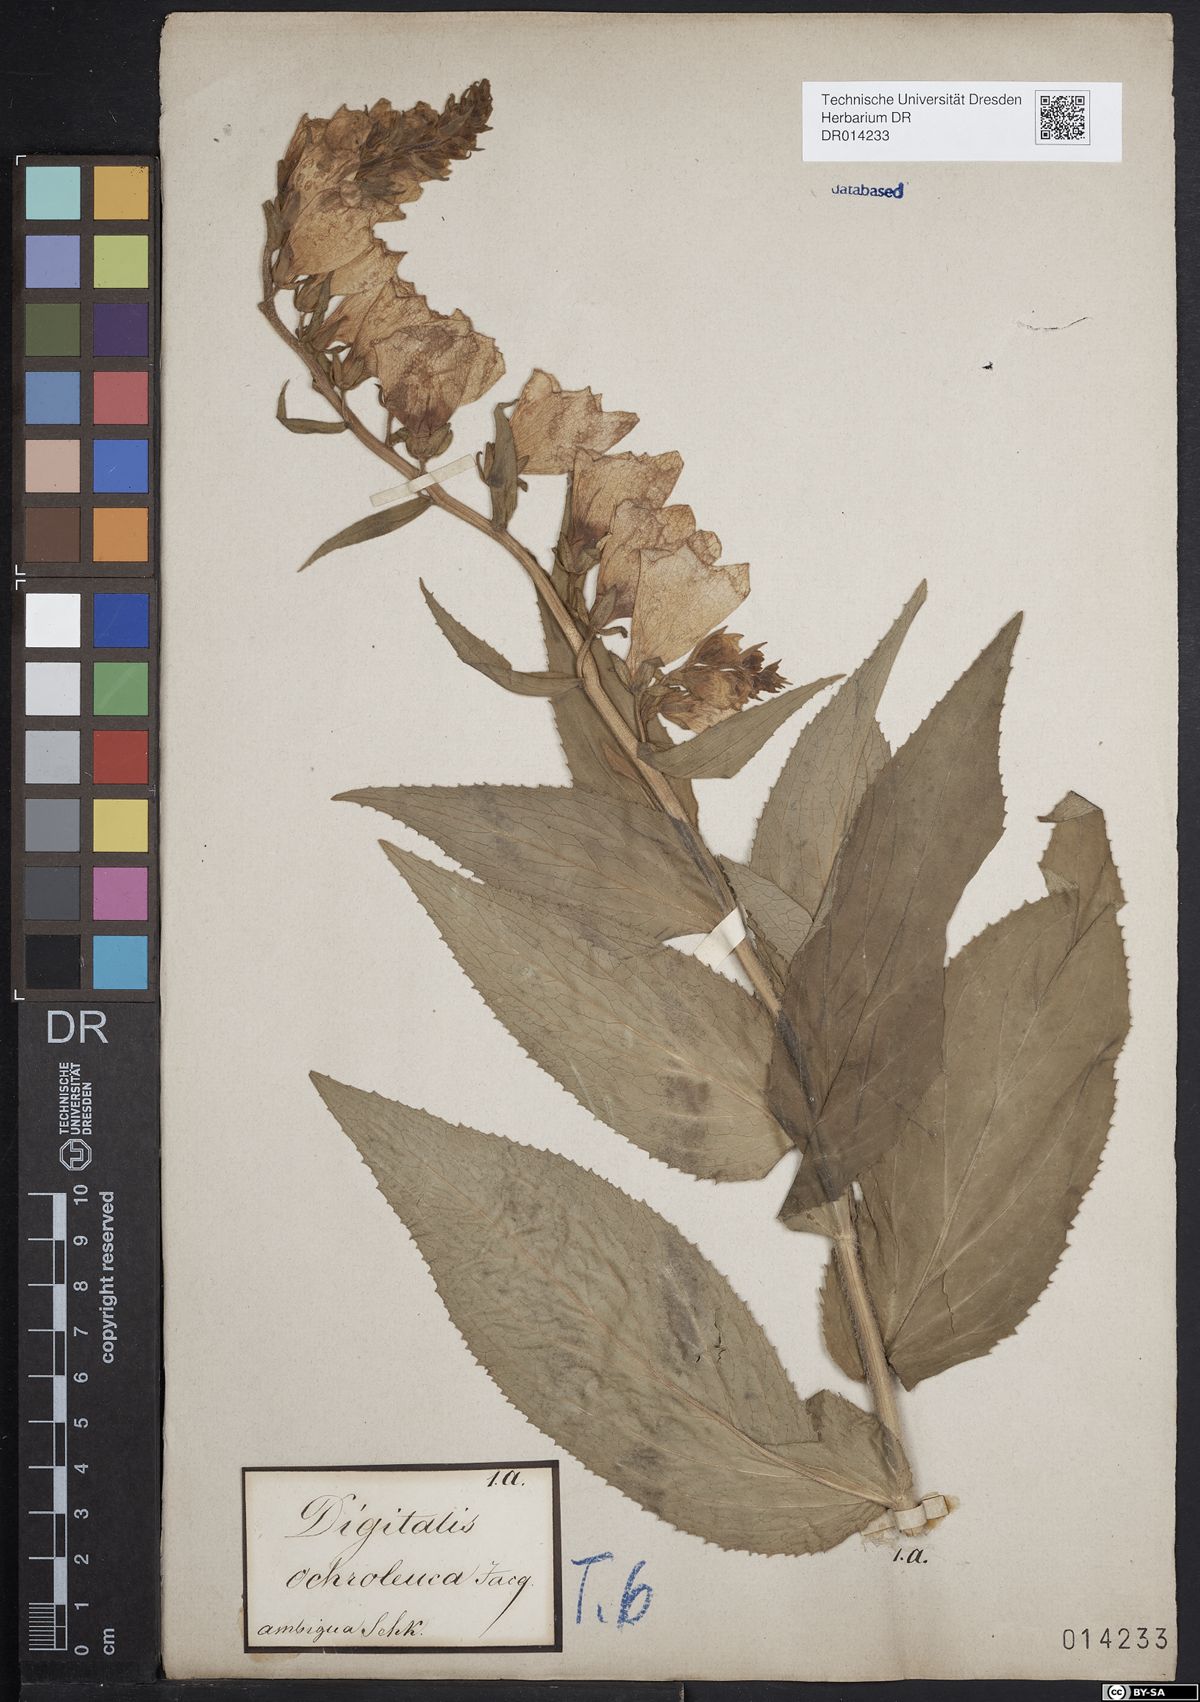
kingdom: Plantae
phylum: Tracheophyta
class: Magnoliopsida
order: Lamiales
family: Plantaginaceae
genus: Digitalis
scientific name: Digitalis grandiflora
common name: Yellow foxglove
